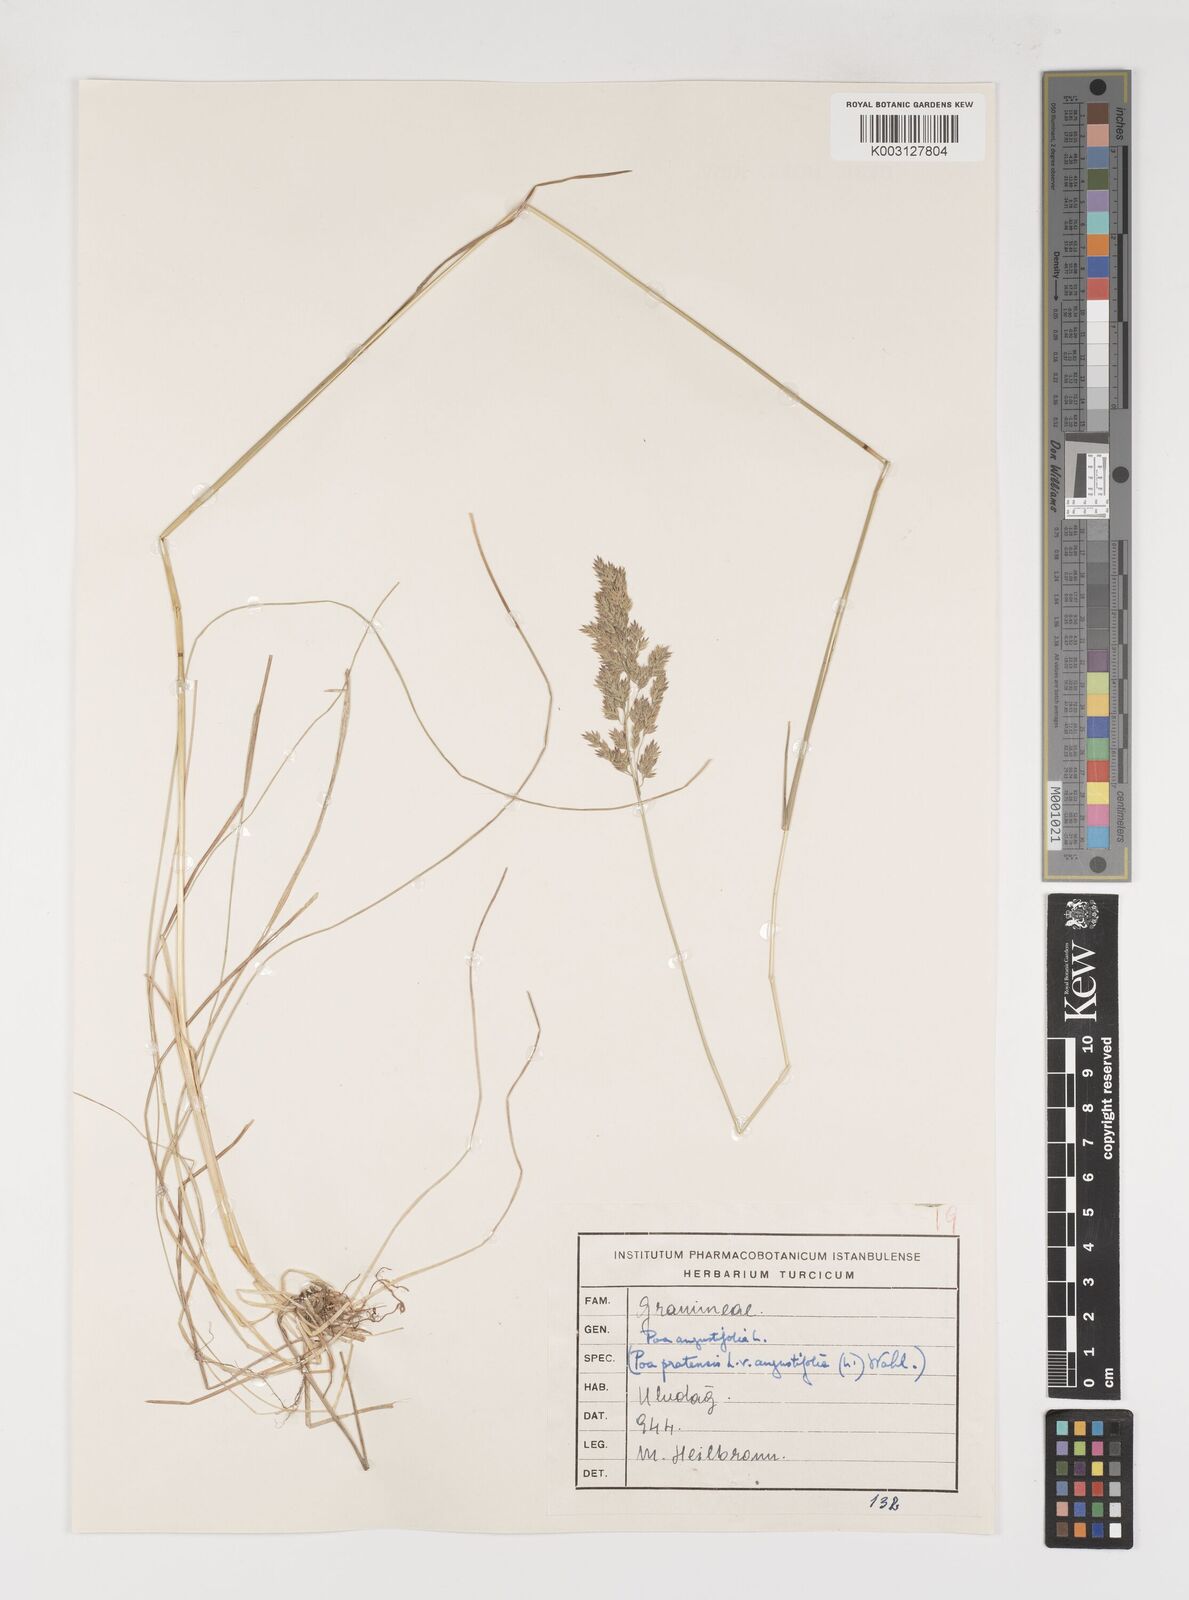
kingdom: Plantae
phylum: Tracheophyta
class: Liliopsida
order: Poales
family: Poaceae
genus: Poa
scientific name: Poa angustifolia
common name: Narrow-leaved meadow-grass
